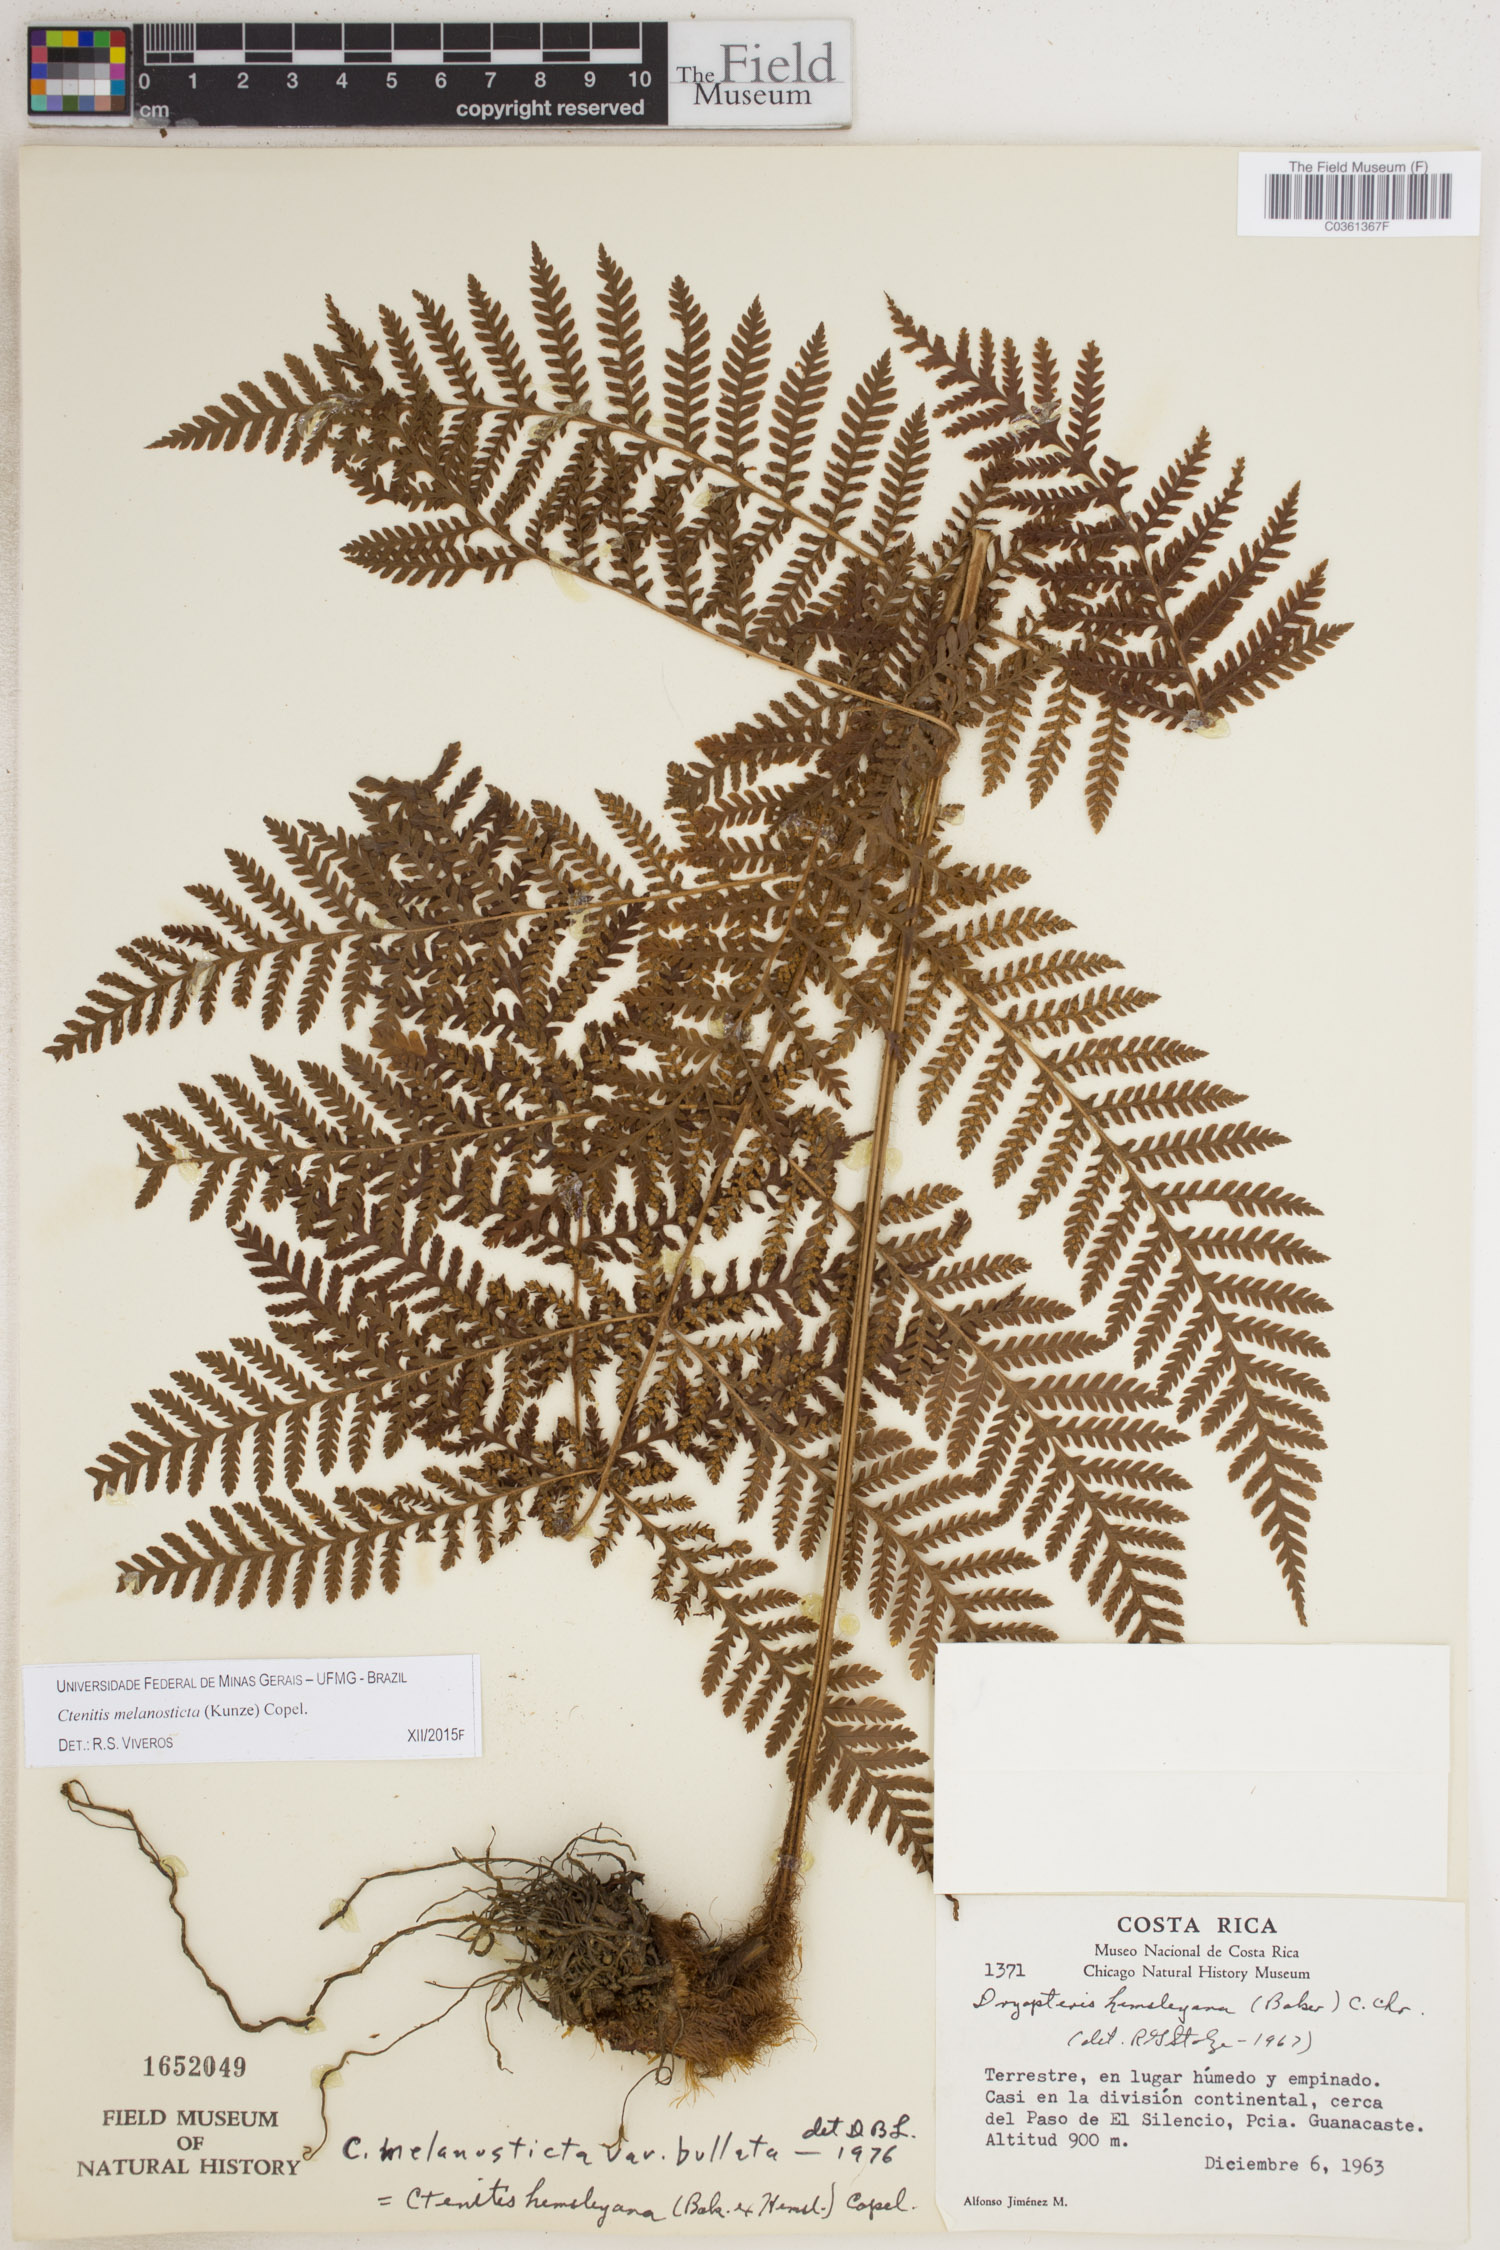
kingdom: Plantae
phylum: Tracheophyta
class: Polypodiopsida
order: Polypodiales
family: Dryopteridaceae
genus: Ctenitis
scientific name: Ctenitis melanosticta
